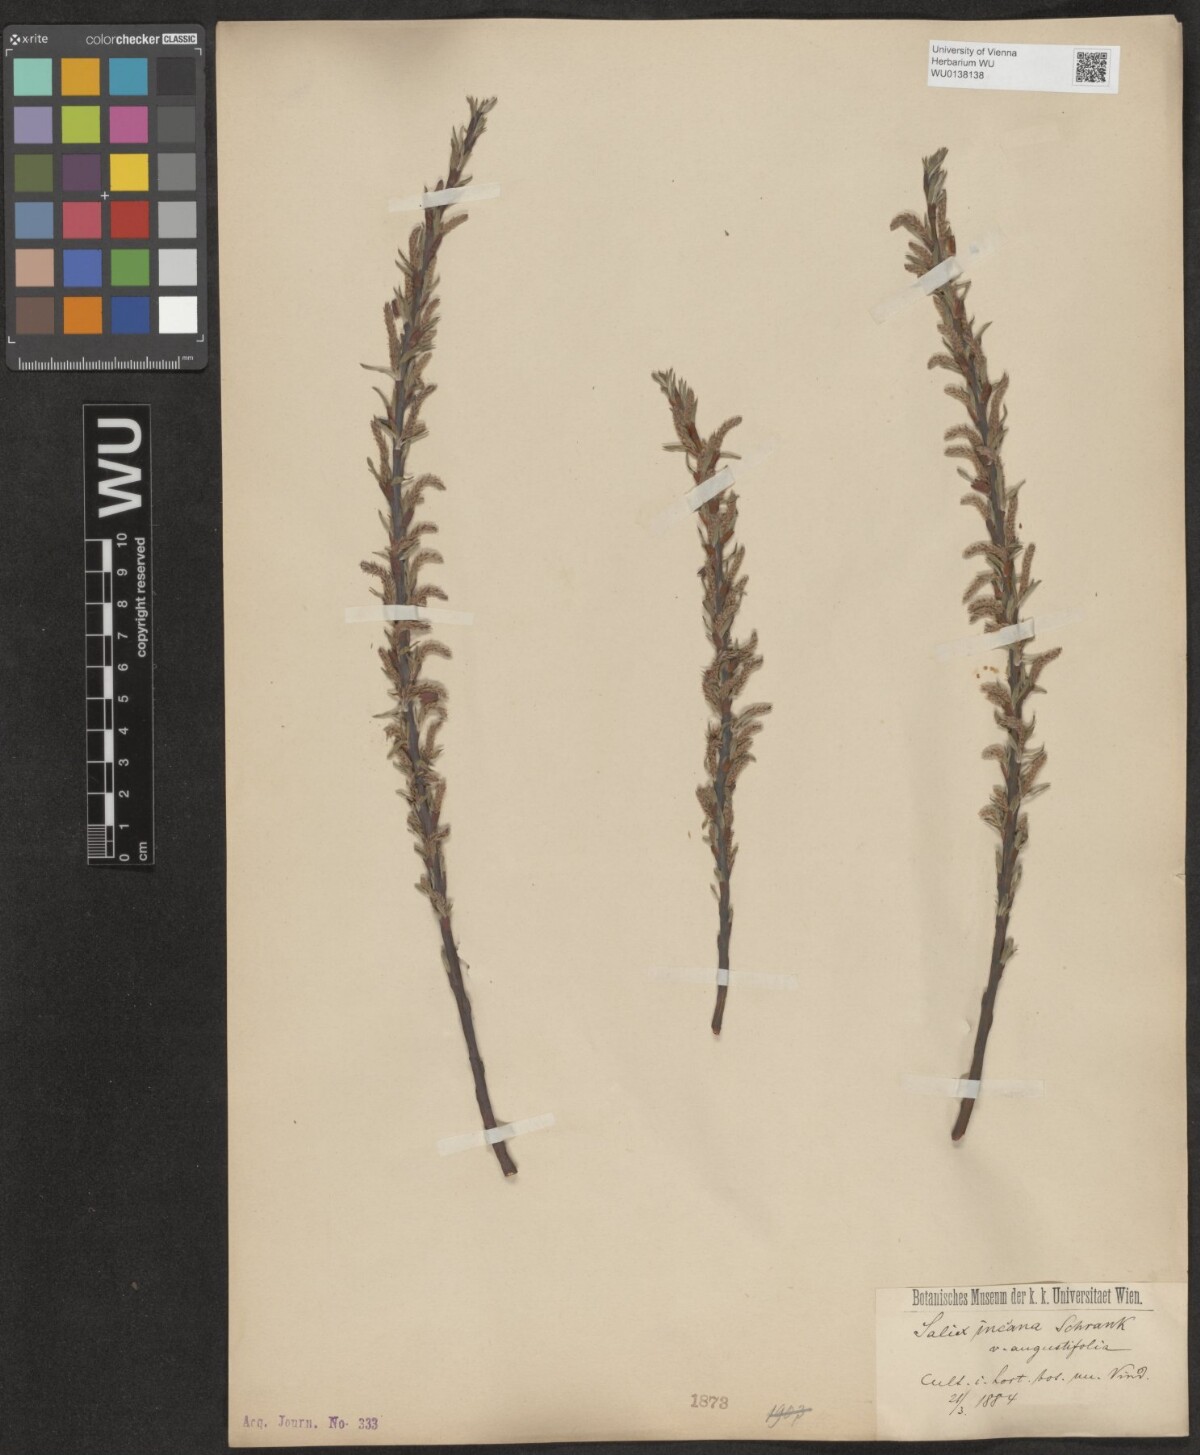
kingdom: Plantae
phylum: Tracheophyta
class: Magnoliopsida
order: Malpighiales
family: Salicaceae
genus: Salix
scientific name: Salix eleagnos
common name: Elaeagnus willow
